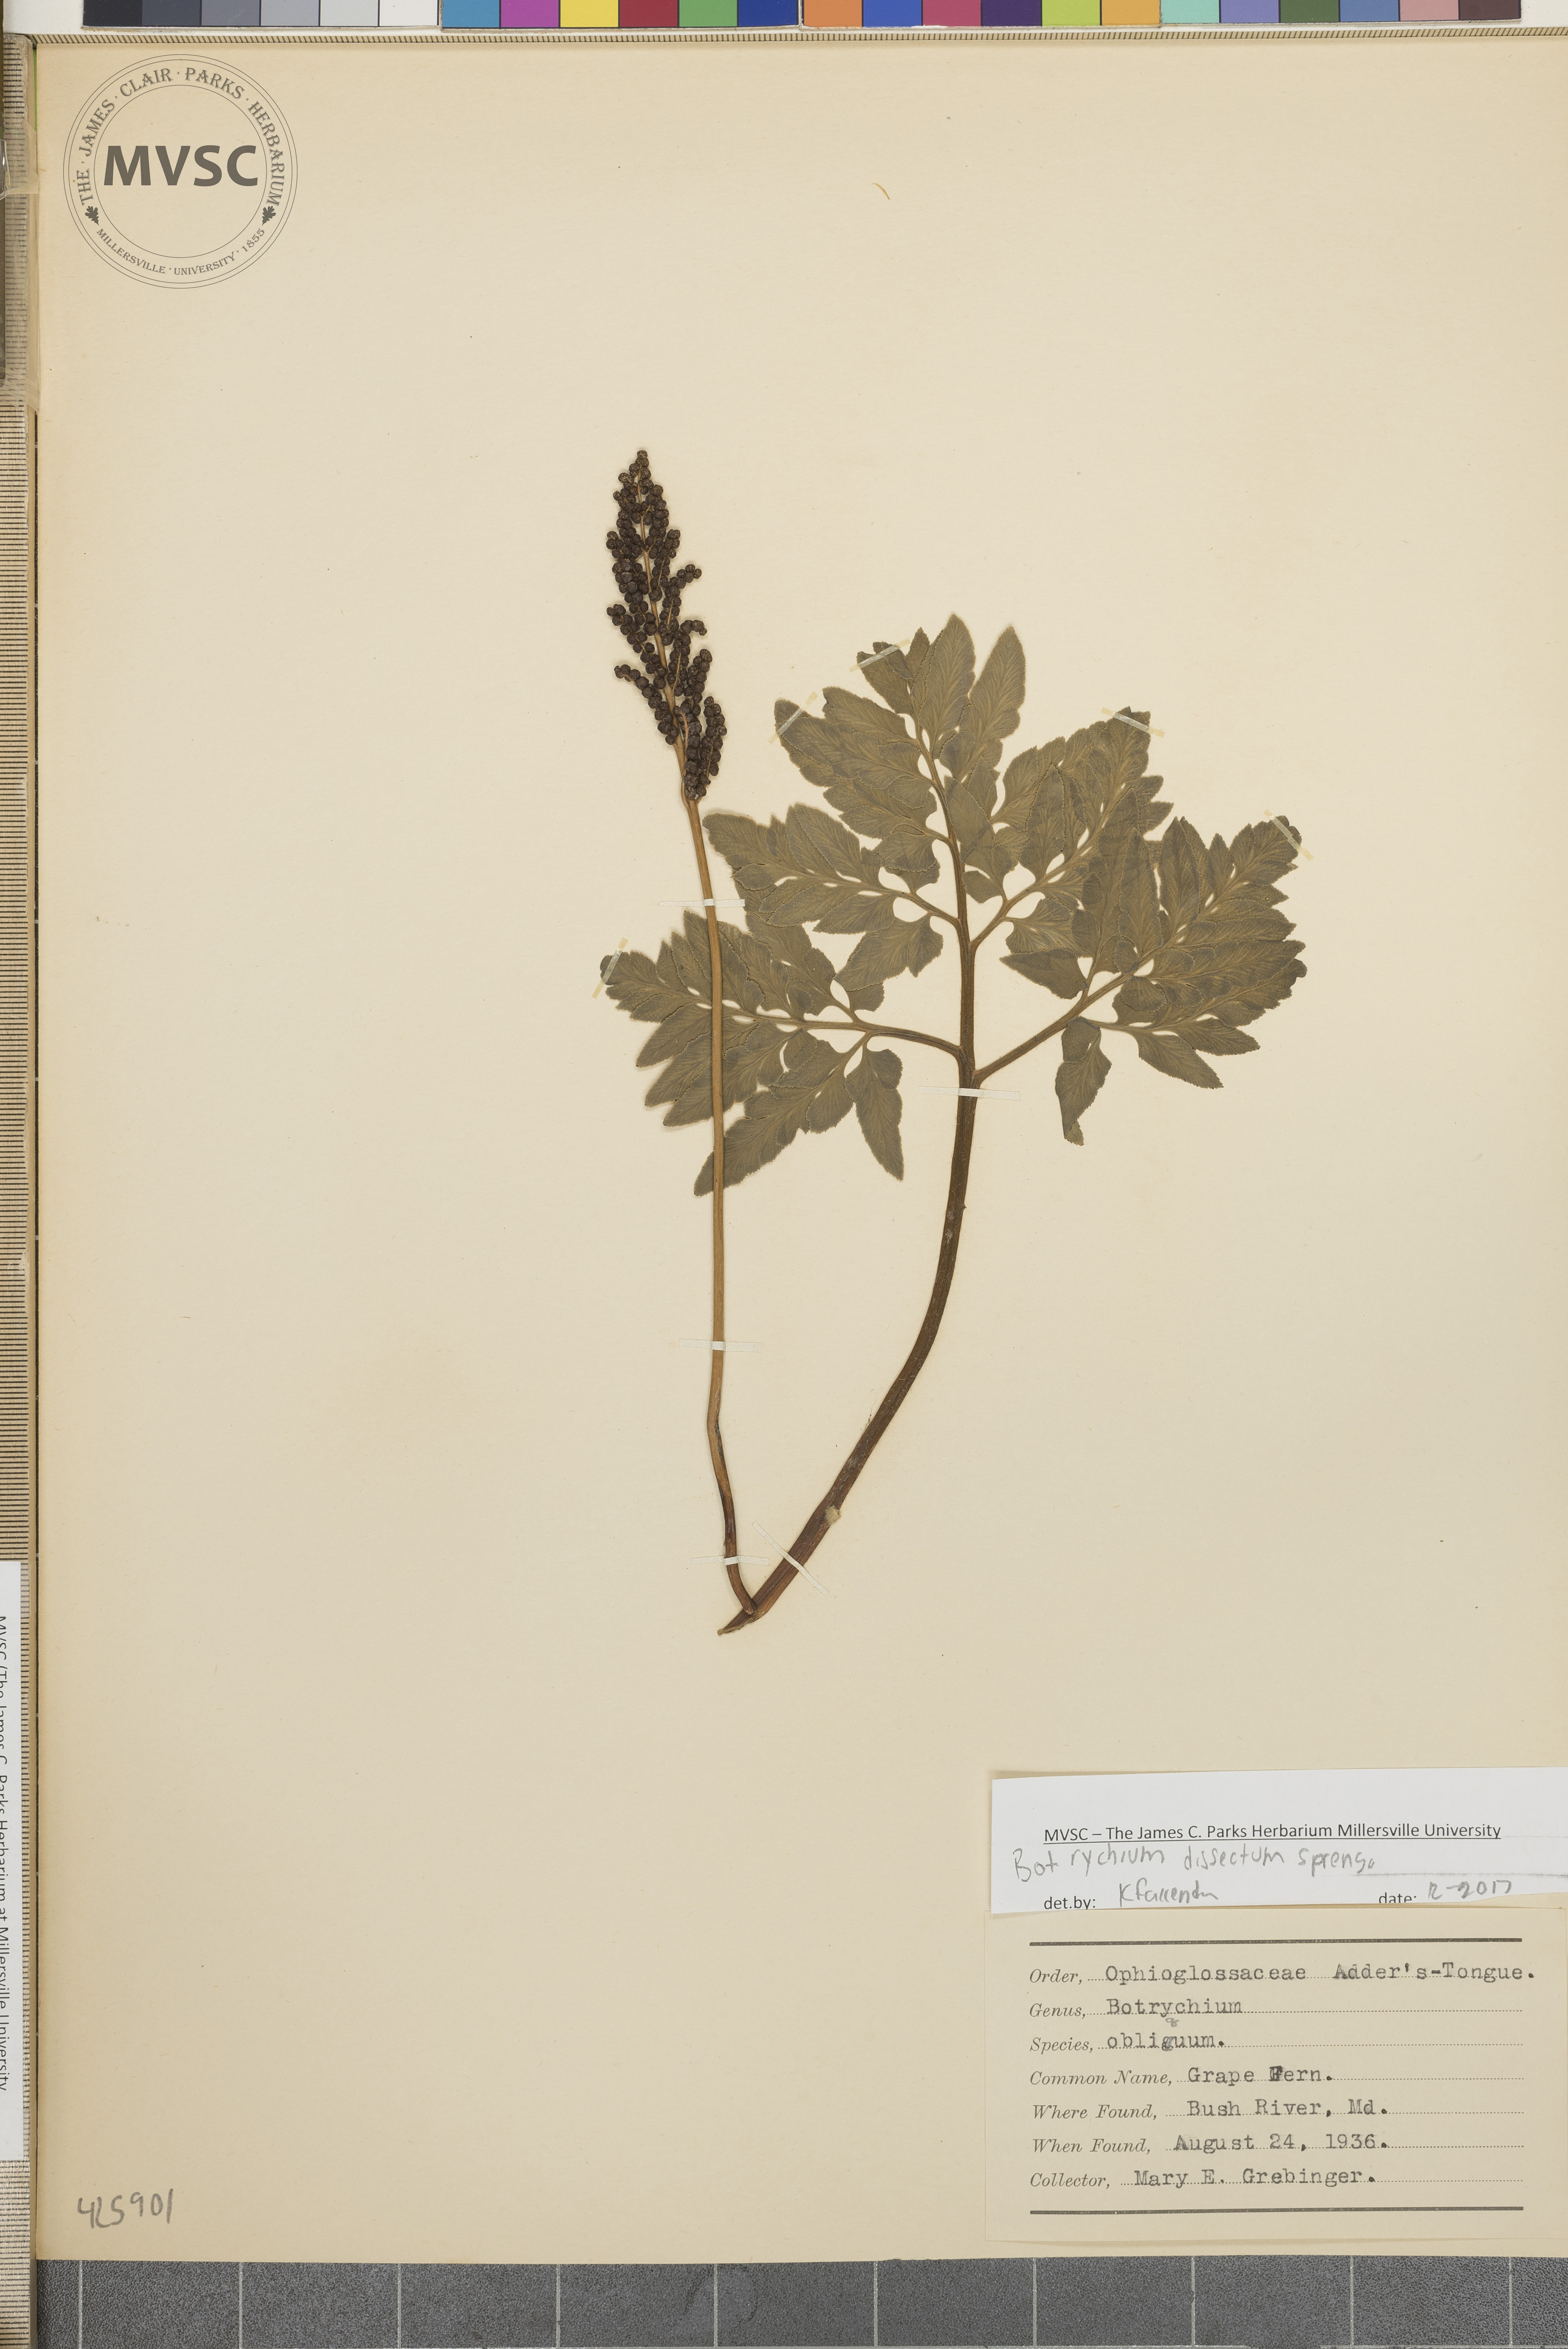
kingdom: Plantae
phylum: Tracheophyta
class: Polypodiopsida
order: Ophioglossales
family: Ophioglossaceae
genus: Sceptridium
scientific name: Sceptridium dissectum
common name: Grape-fern
